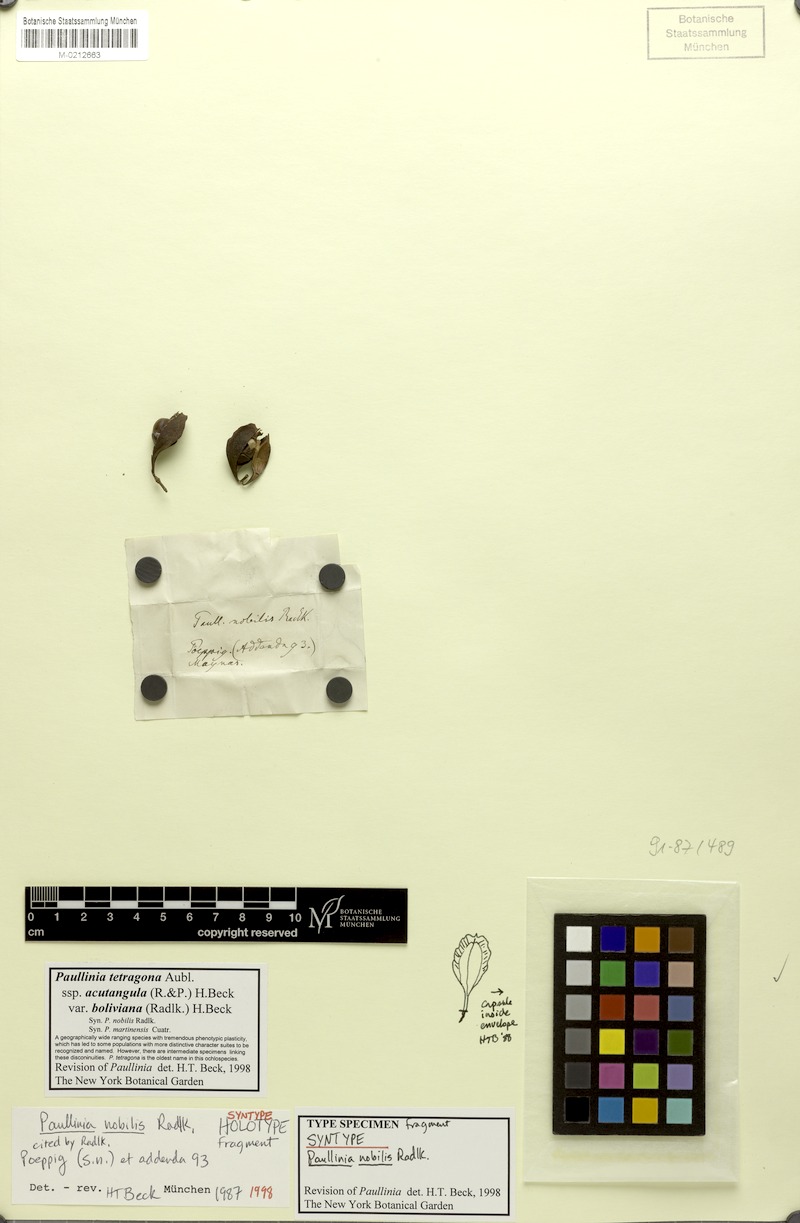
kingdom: Plantae
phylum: Tracheophyta
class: Magnoliopsida
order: Sapindales
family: Sapindaceae
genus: Paullinia
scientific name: Paullinia tetragona
